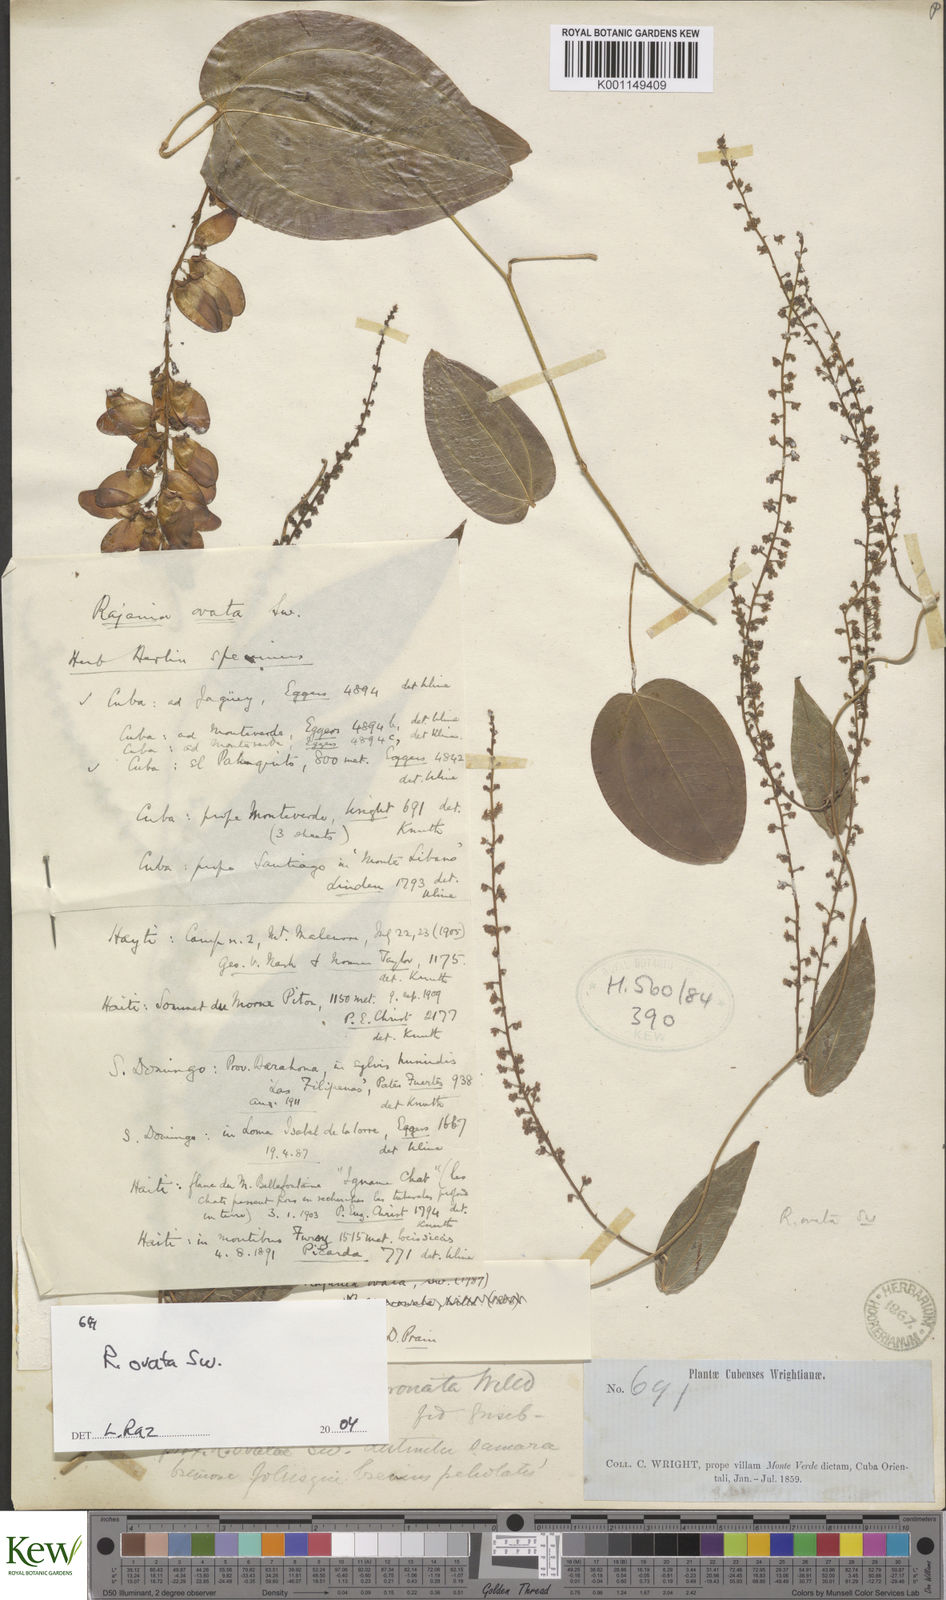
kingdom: Plantae
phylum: Tracheophyta
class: Liliopsida
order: Dioscoreales
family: Dioscoreaceae
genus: Dioscorea
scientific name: Dioscorea
